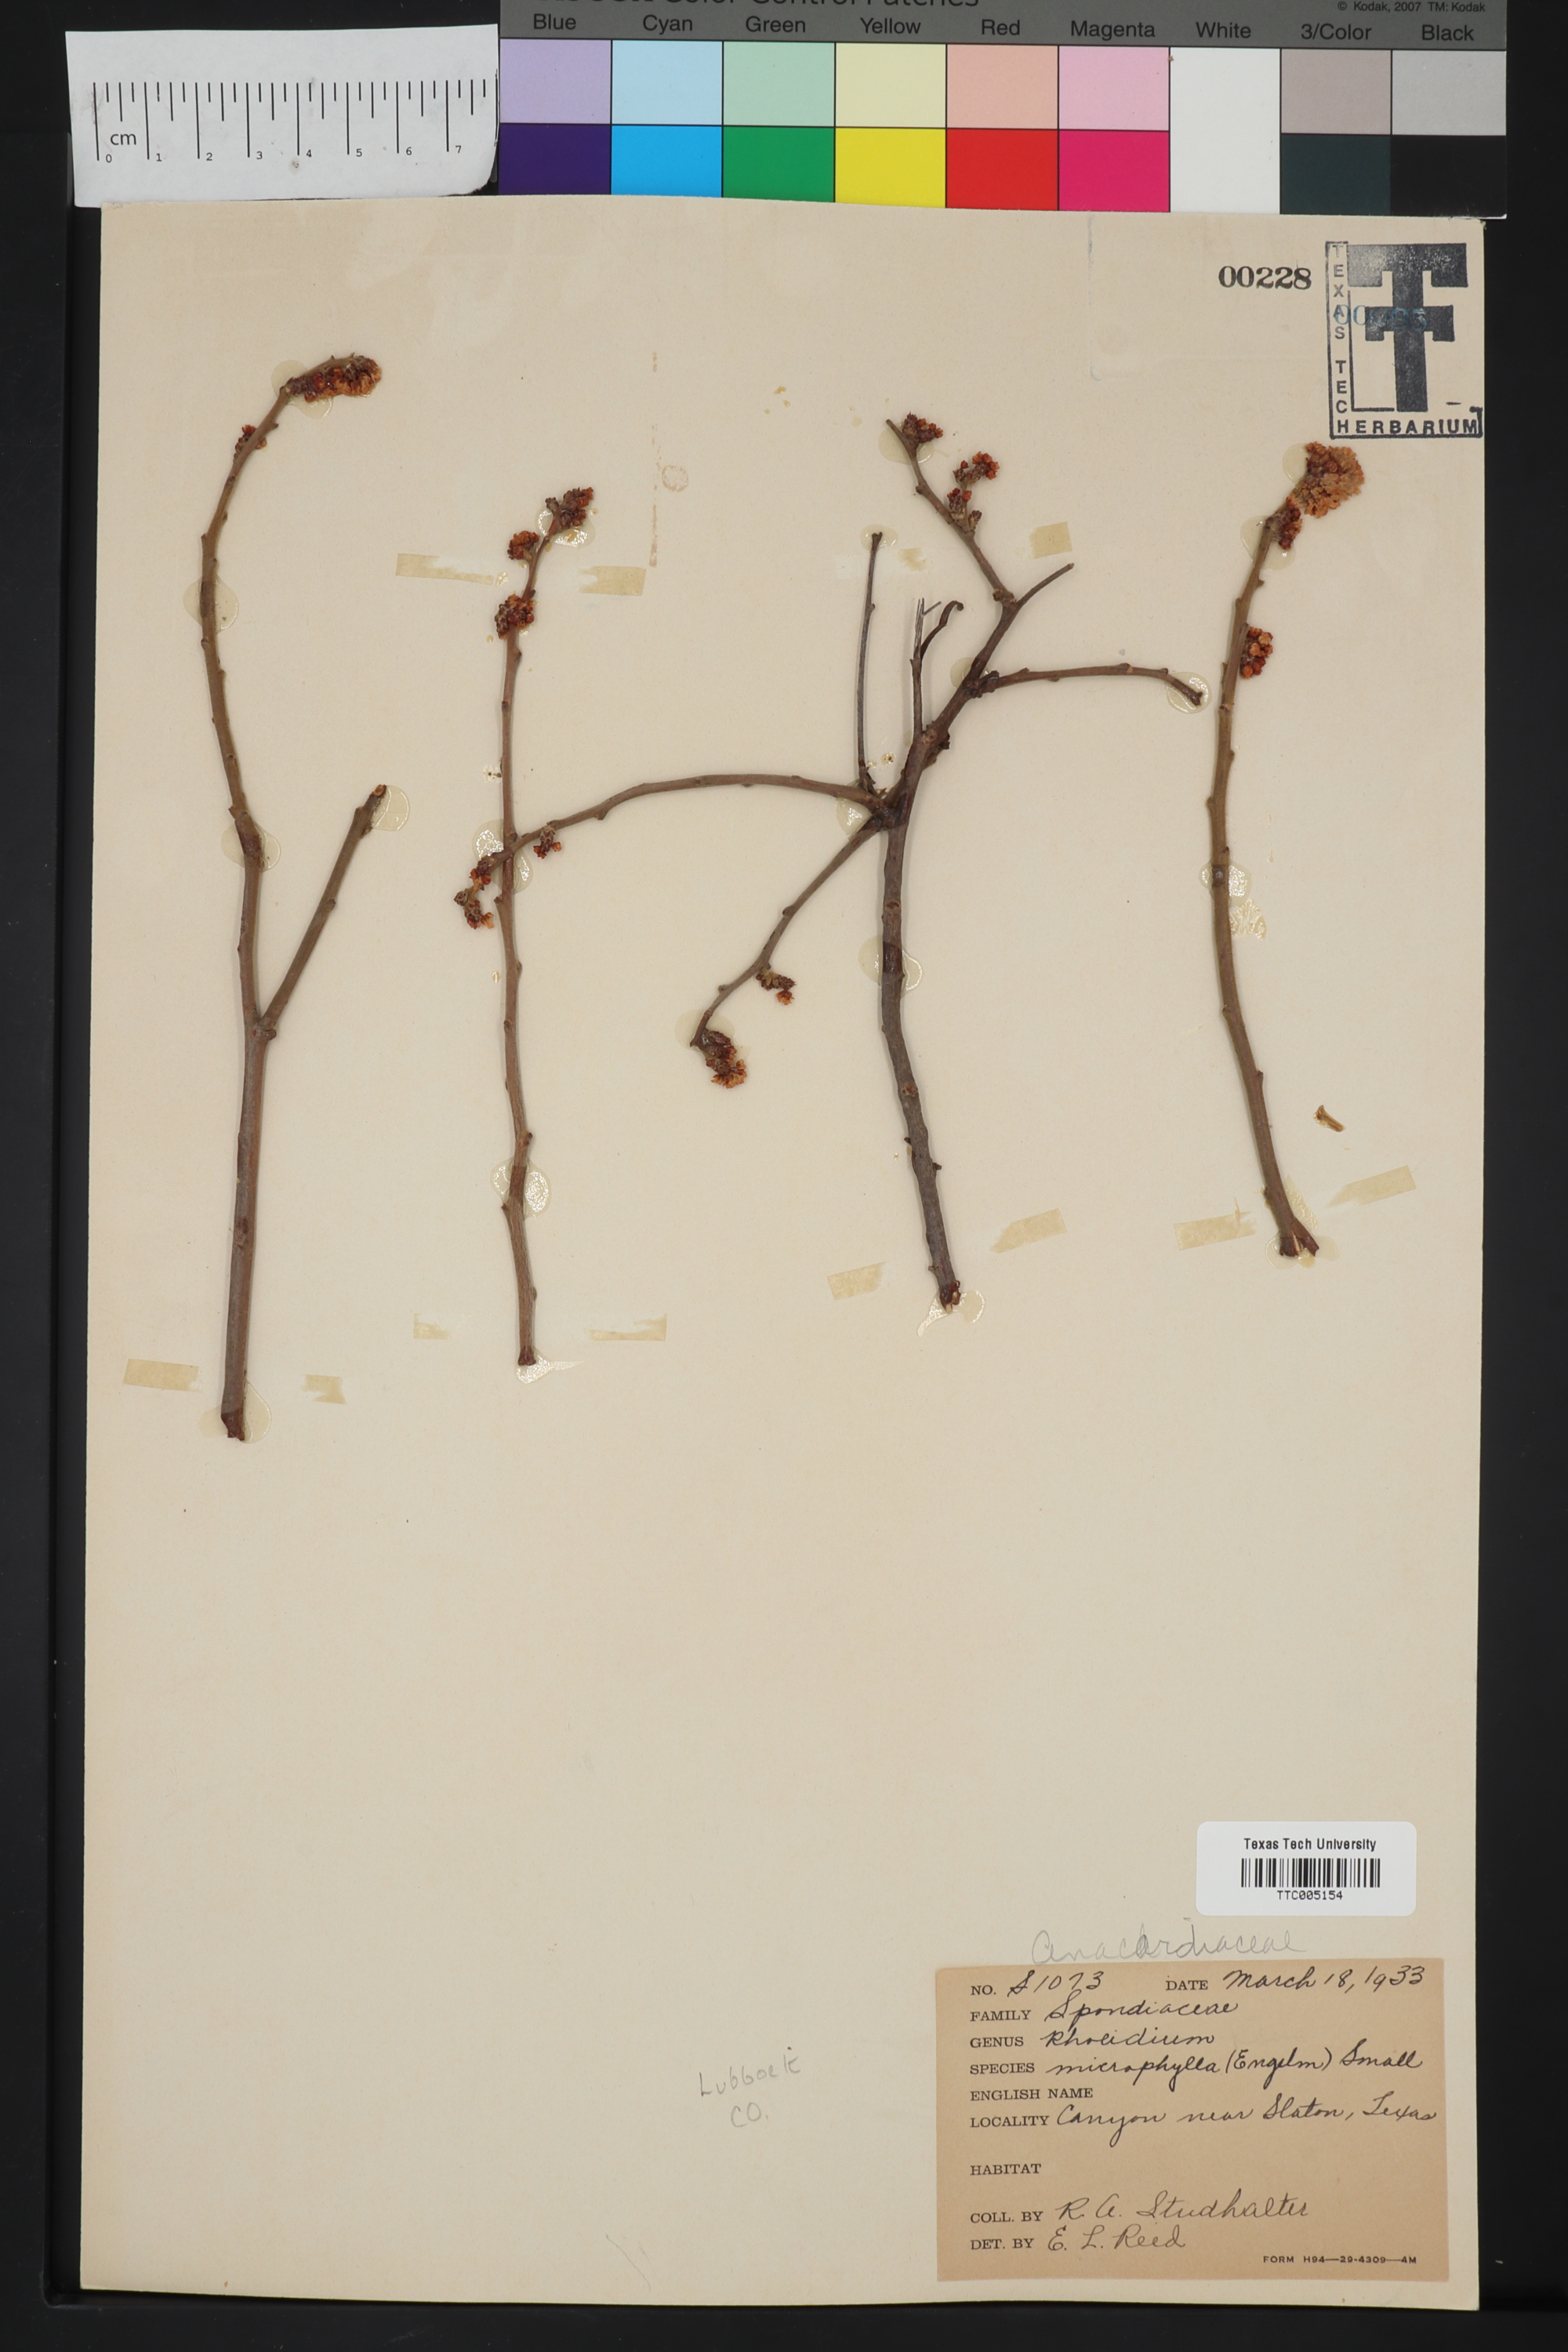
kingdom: Plantae
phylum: Tracheophyta
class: Magnoliopsida
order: Sapindales
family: Anacardiaceae
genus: Rhus
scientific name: Rhus microphylla
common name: Desert sumac
